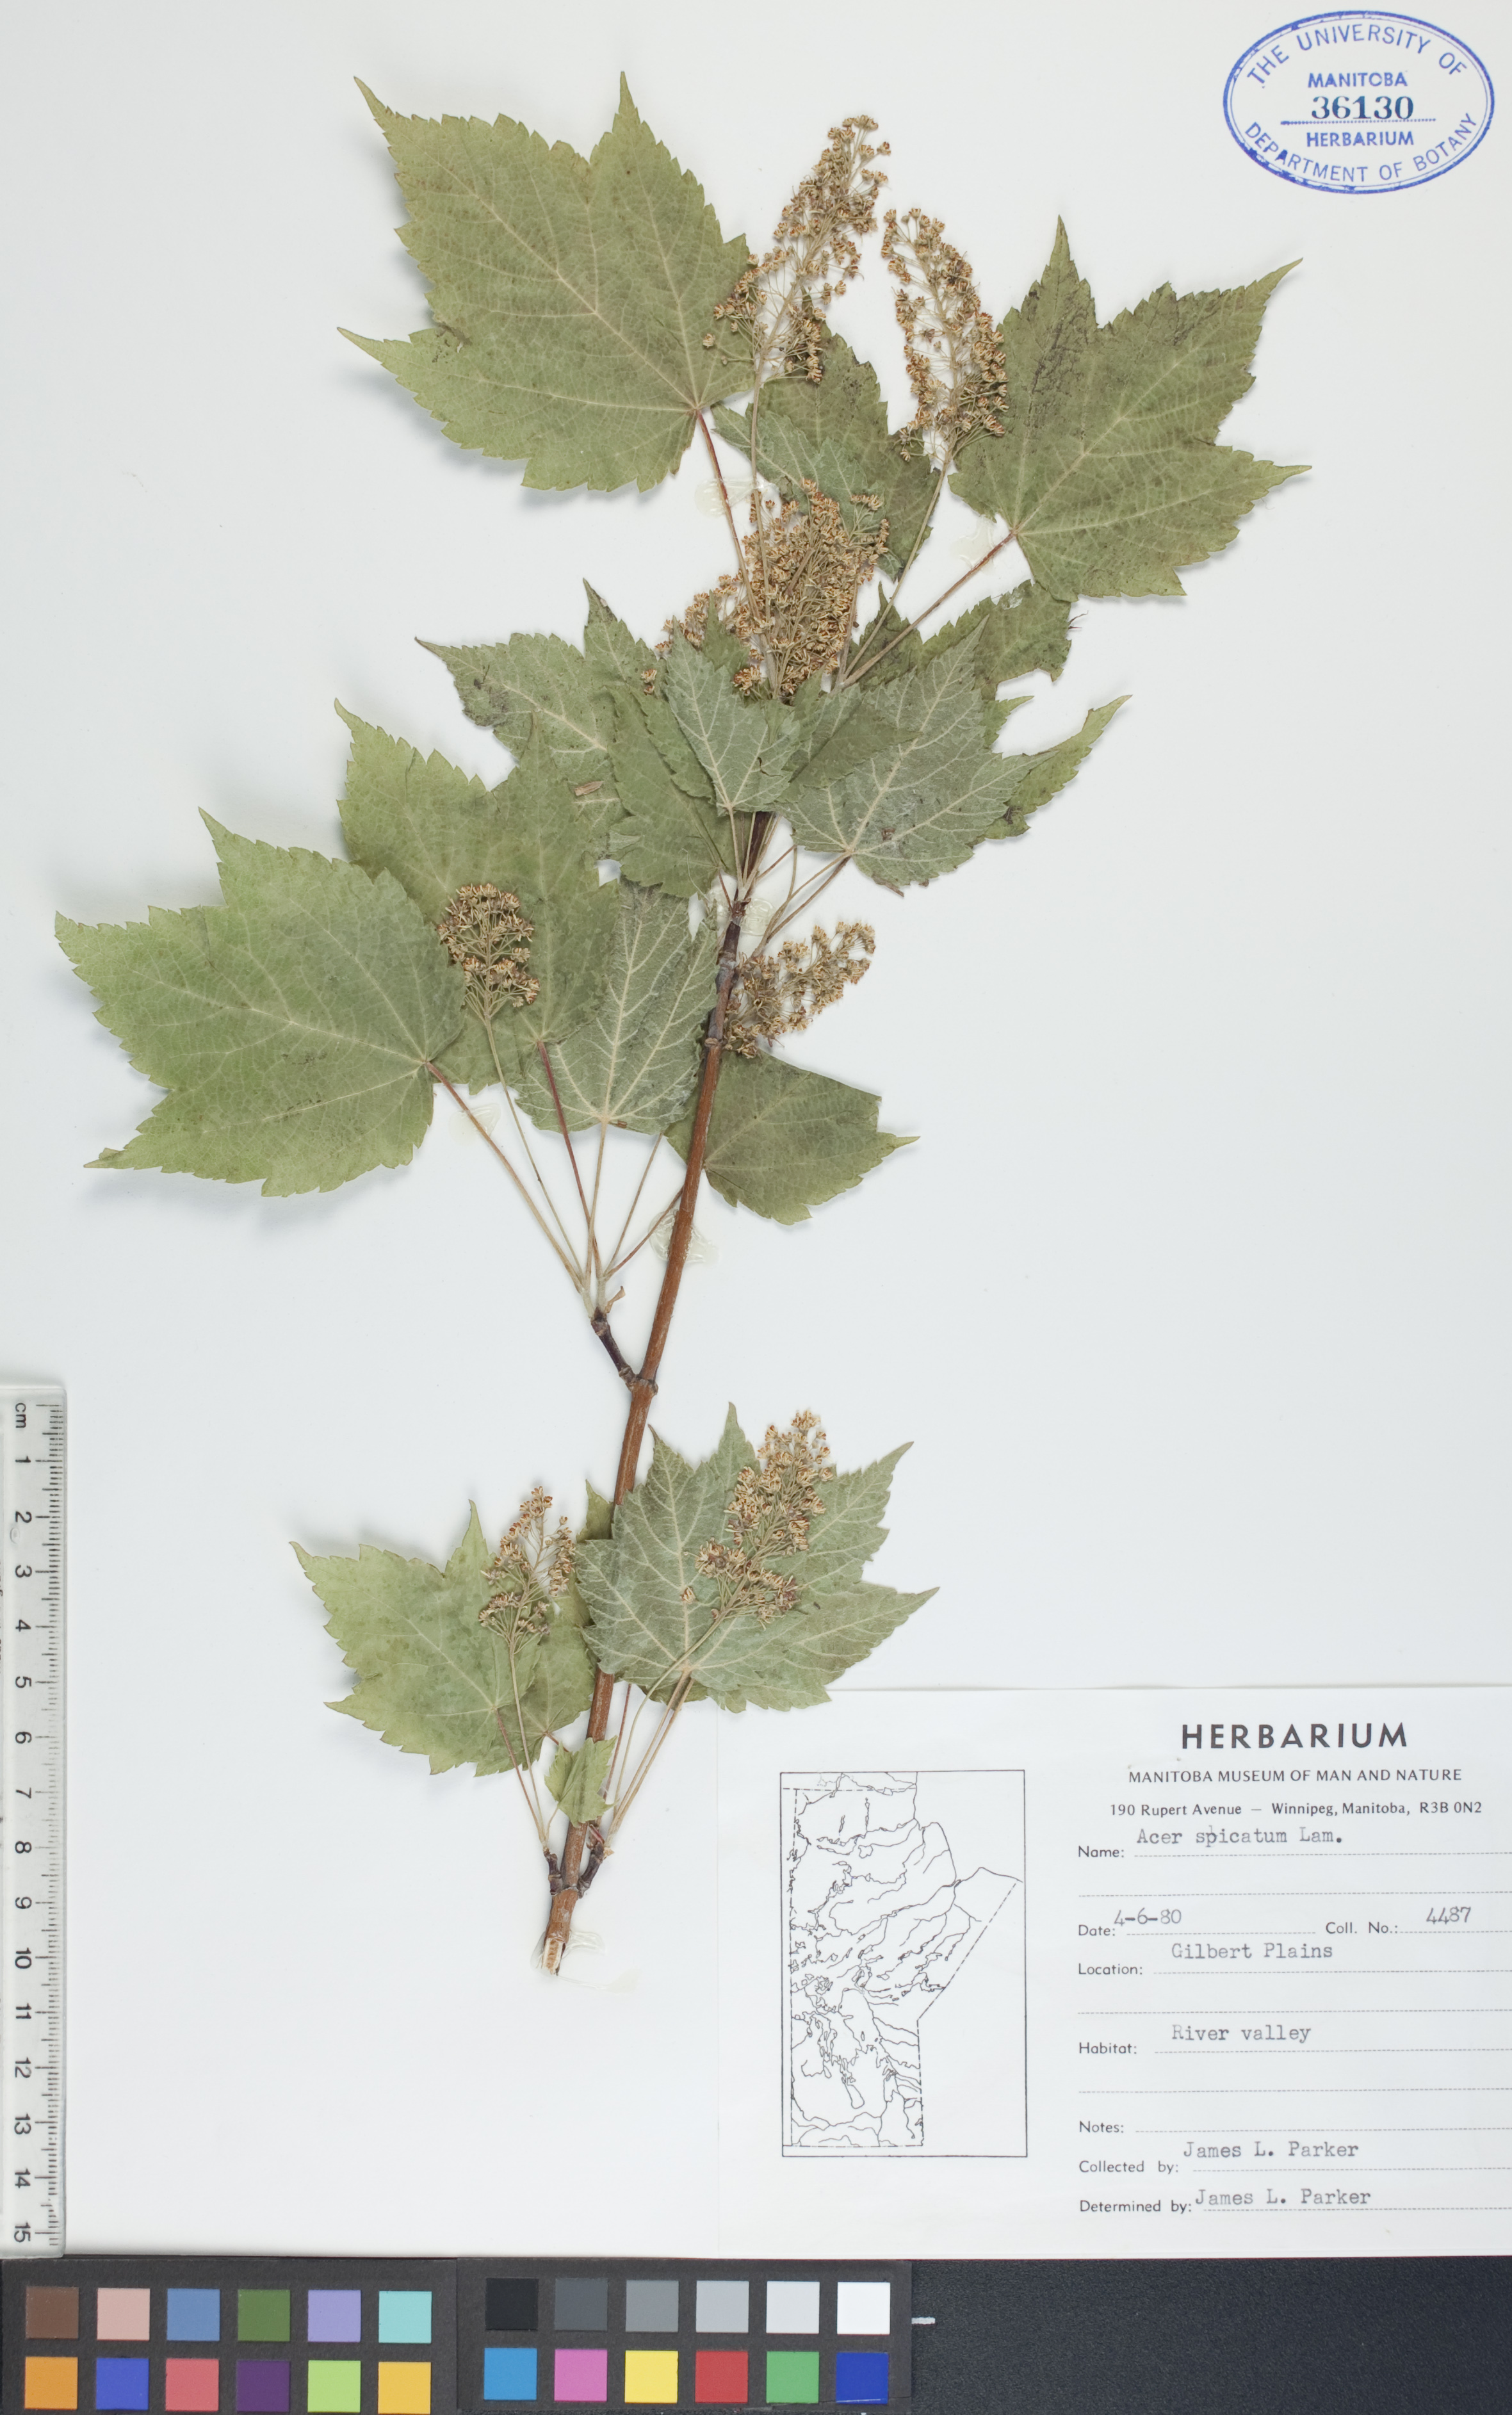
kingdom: Plantae
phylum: Tracheophyta
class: Magnoliopsida
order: Sapindales
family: Sapindaceae
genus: Acer
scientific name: Acer spicatum
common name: Mountain maple
